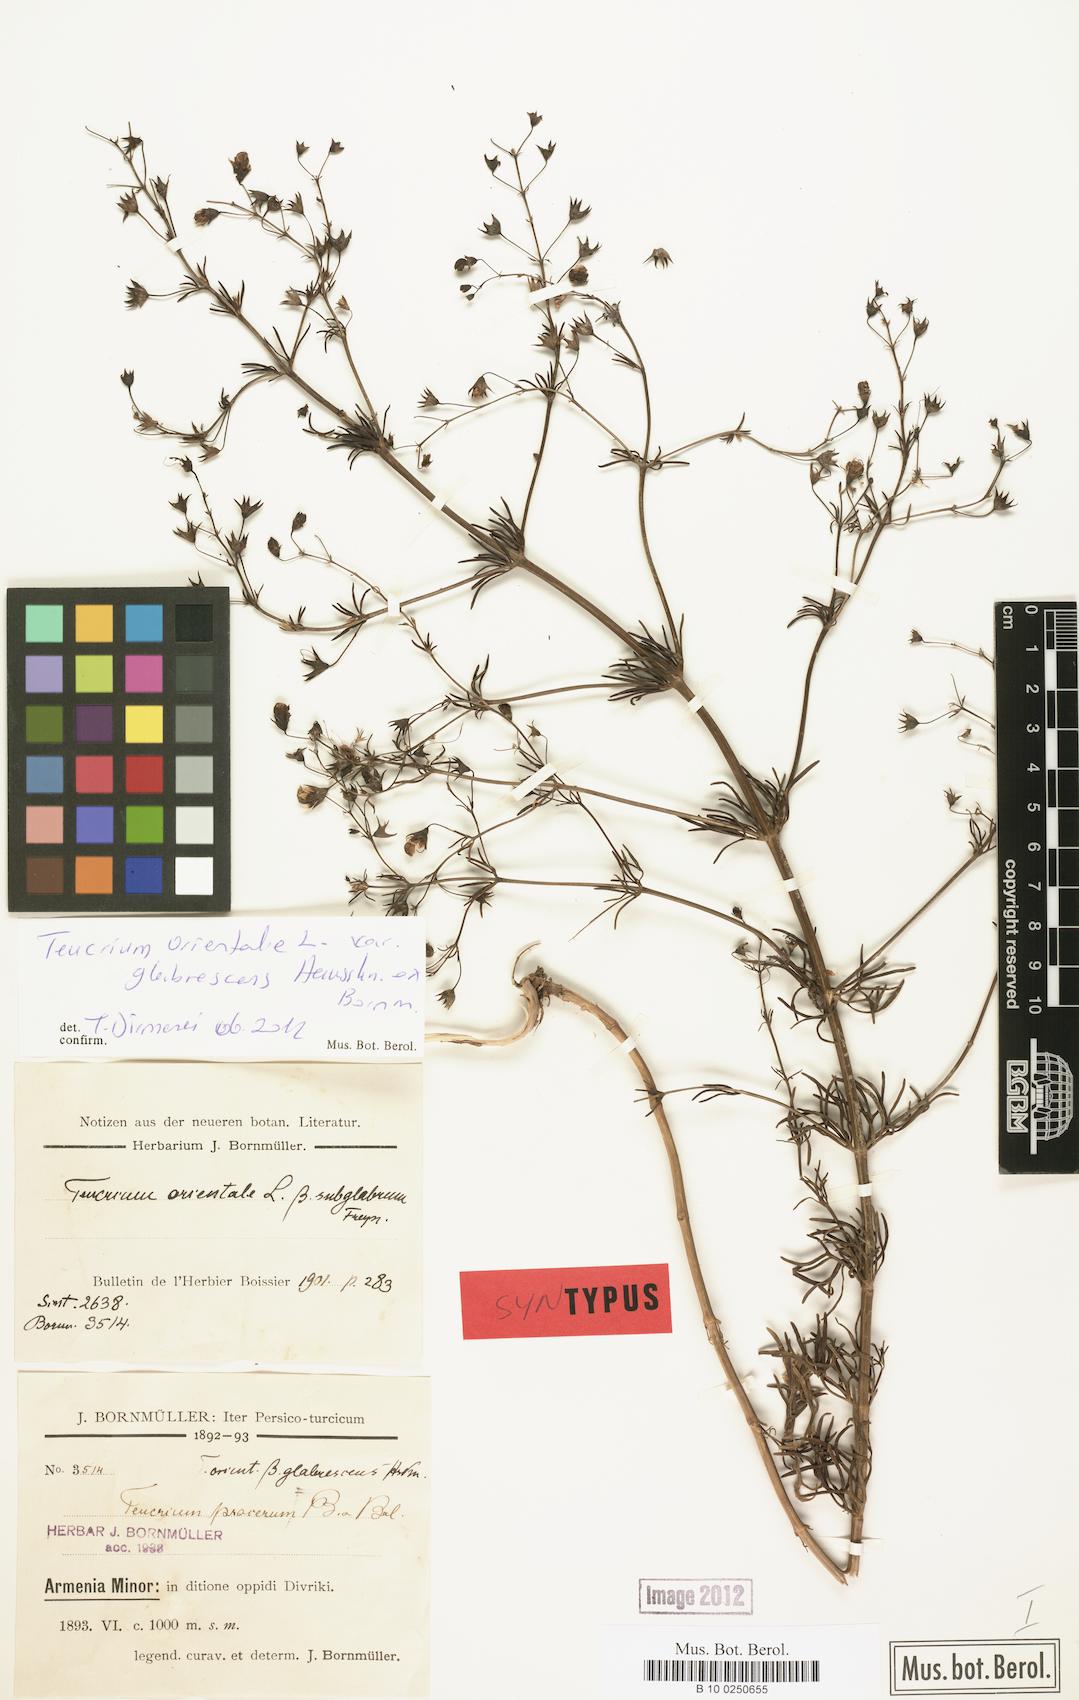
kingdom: Plantae
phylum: Tracheophyta
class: Magnoliopsida
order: Lamiales
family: Lamiaceae
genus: Teucrium
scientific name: Teucrium orientale
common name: Oriental germander
